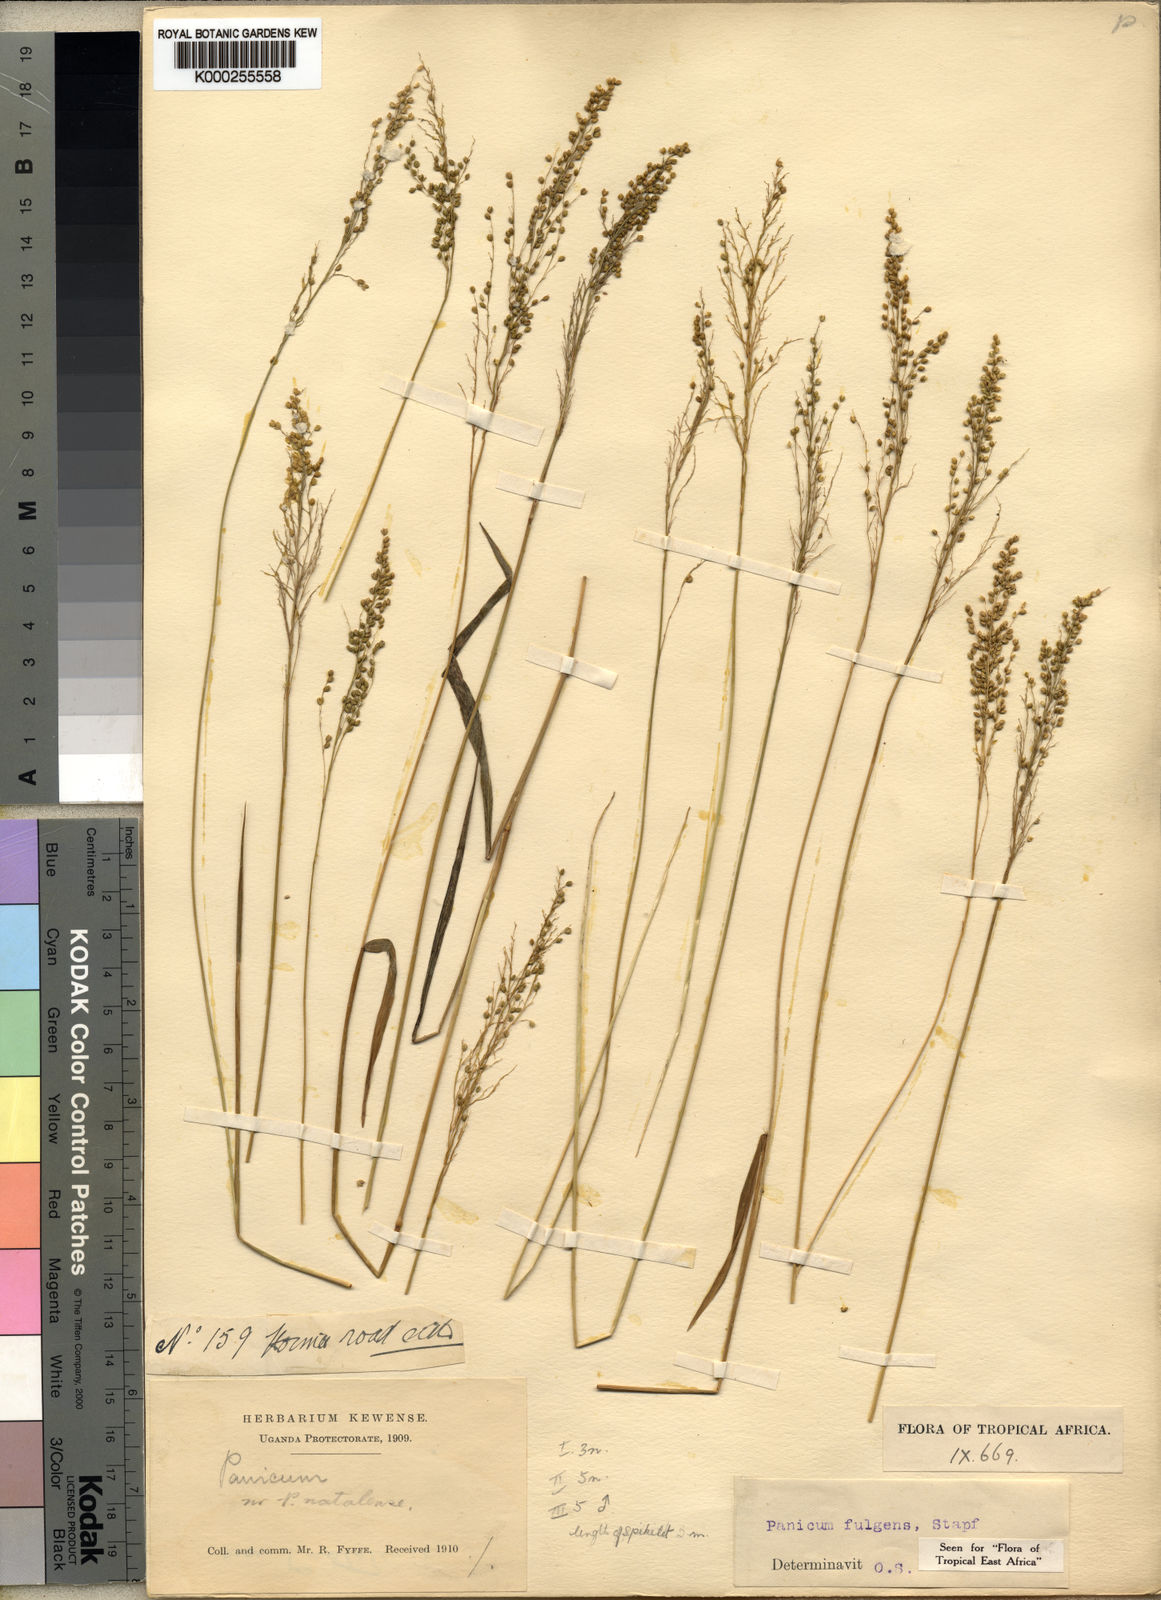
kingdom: Plantae
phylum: Tracheophyta
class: Liliopsida
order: Poales
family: Poaceae
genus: Trichanthecium
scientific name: Trichanthecium nervatum
